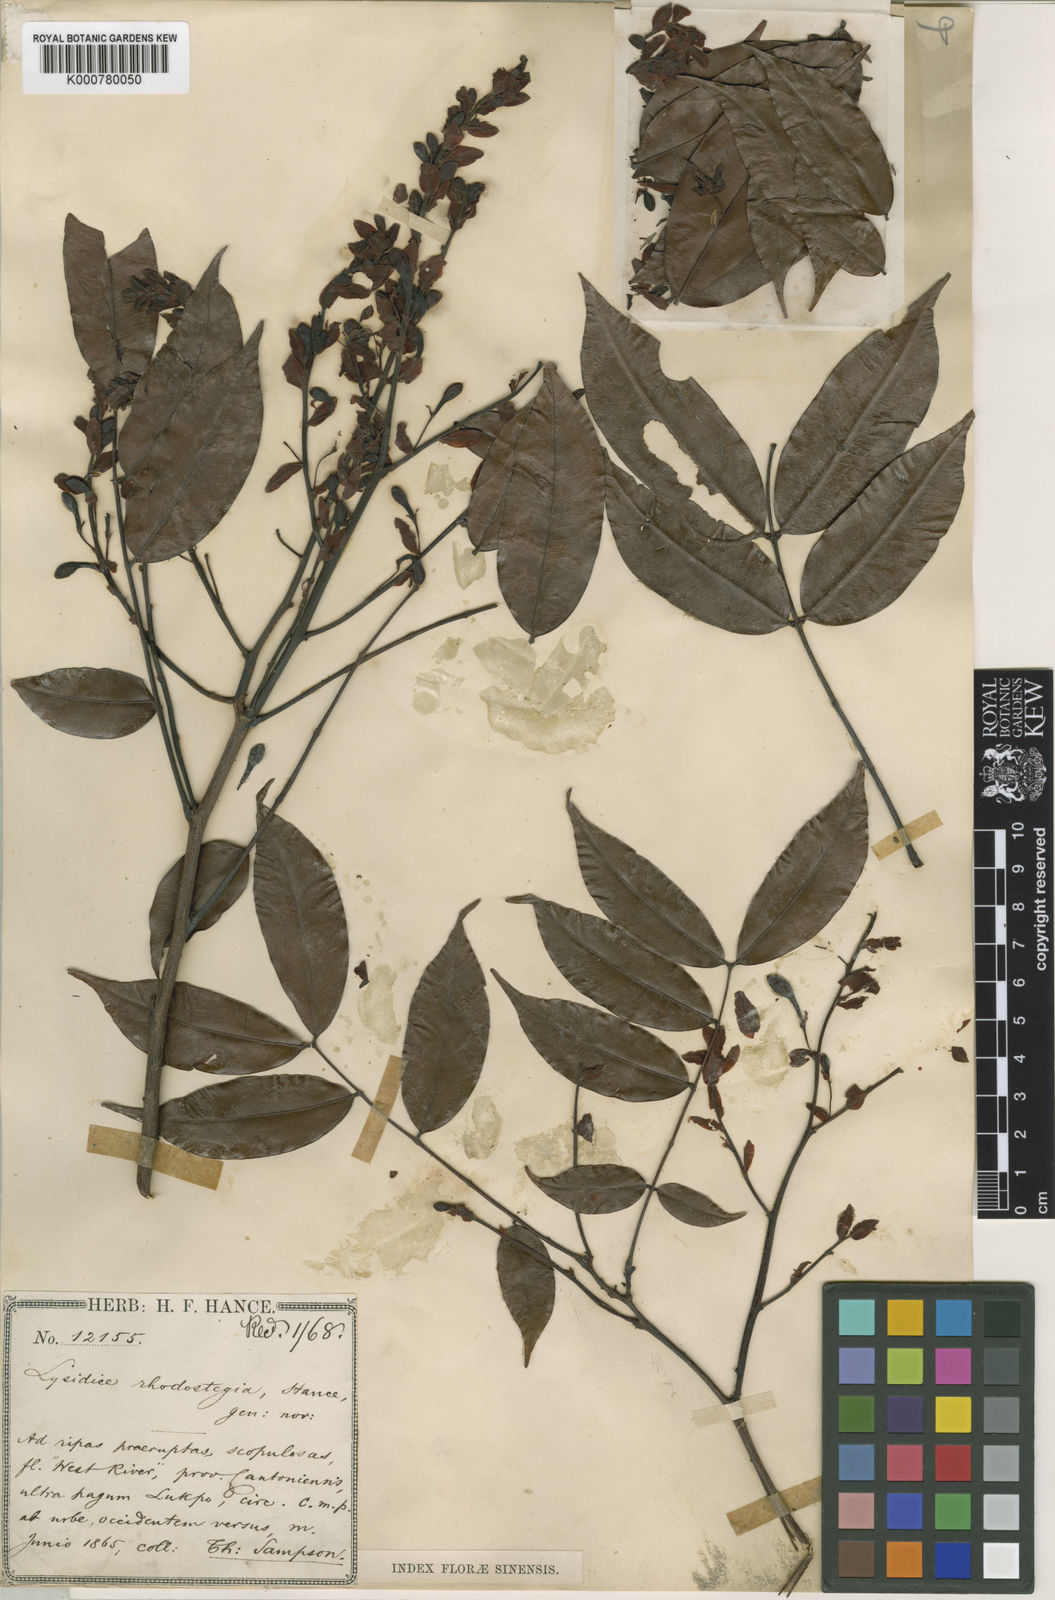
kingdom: Plantae
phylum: Tracheophyta
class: Magnoliopsida
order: Fabales
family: Fabaceae
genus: Lysidice
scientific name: Lysidice rhodostegia
